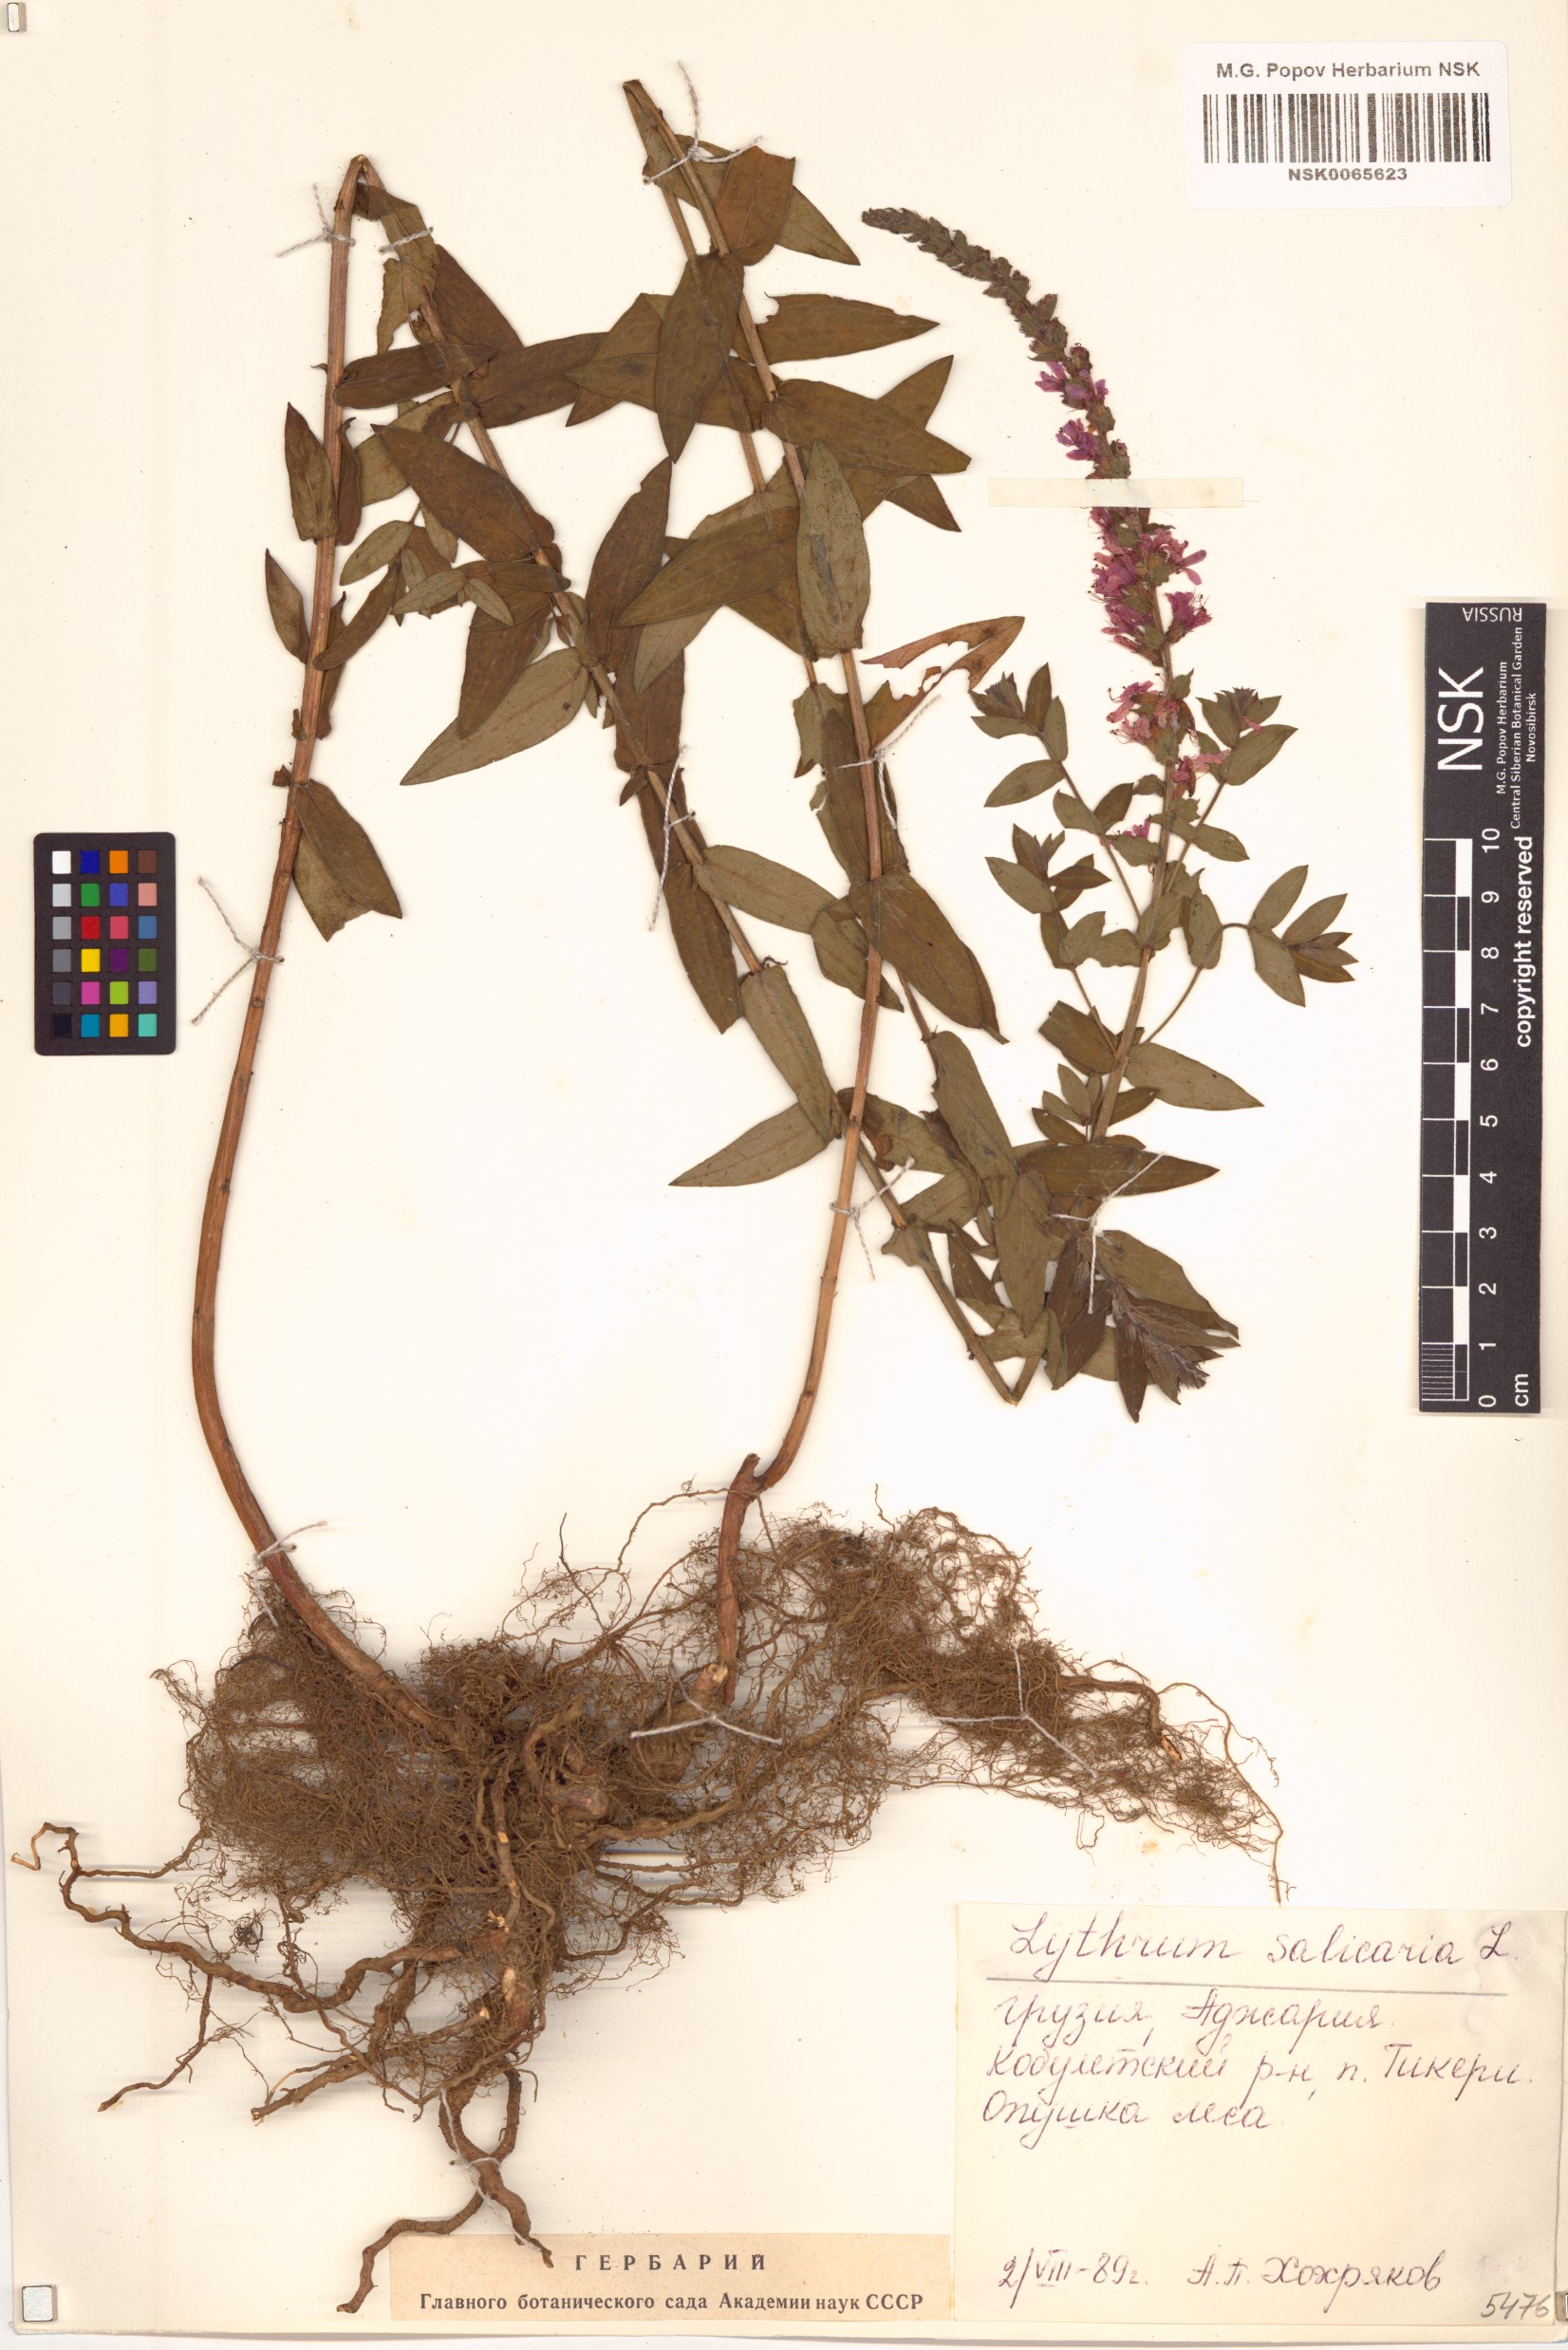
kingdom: Plantae
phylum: Tracheophyta
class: Magnoliopsida
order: Myrtales
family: Lythraceae
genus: Lythrum
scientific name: Lythrum salicaria
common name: Purple loosestrife
